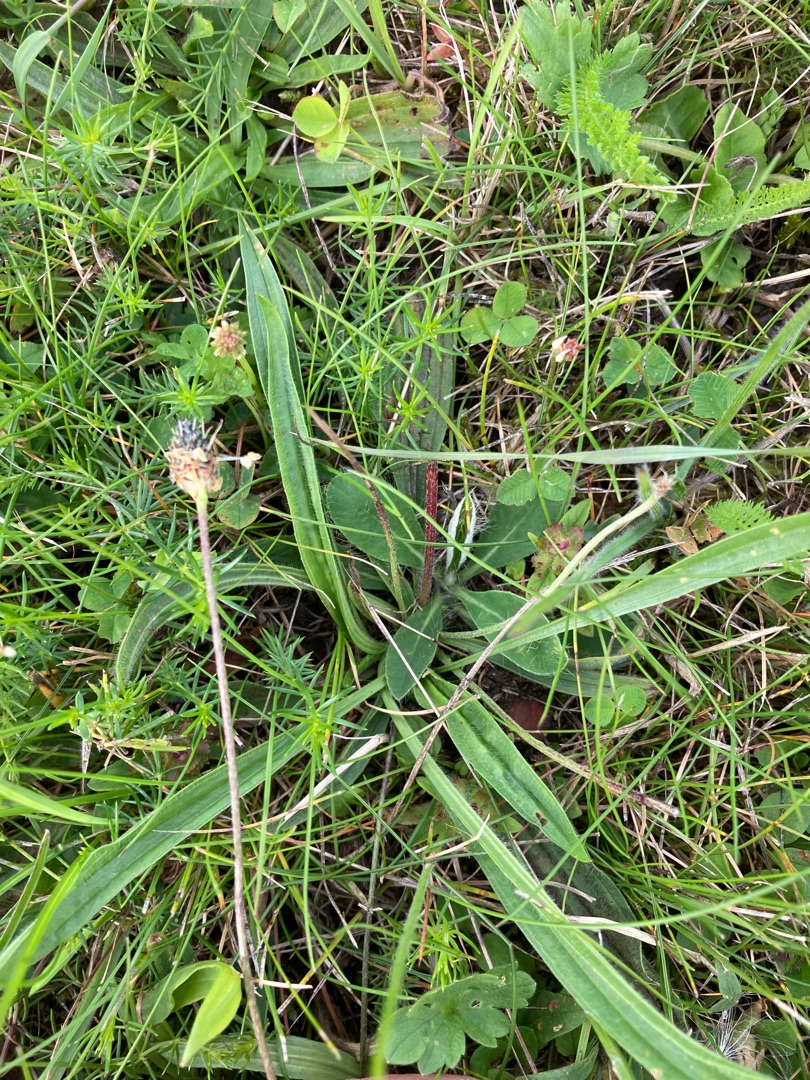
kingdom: Plantae
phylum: Tracheophyta
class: Magnoliopsida
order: Lamiales
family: Plantaginaceae
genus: Plantago
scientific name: Plantago lanceolata
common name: Lancet-vejbred
